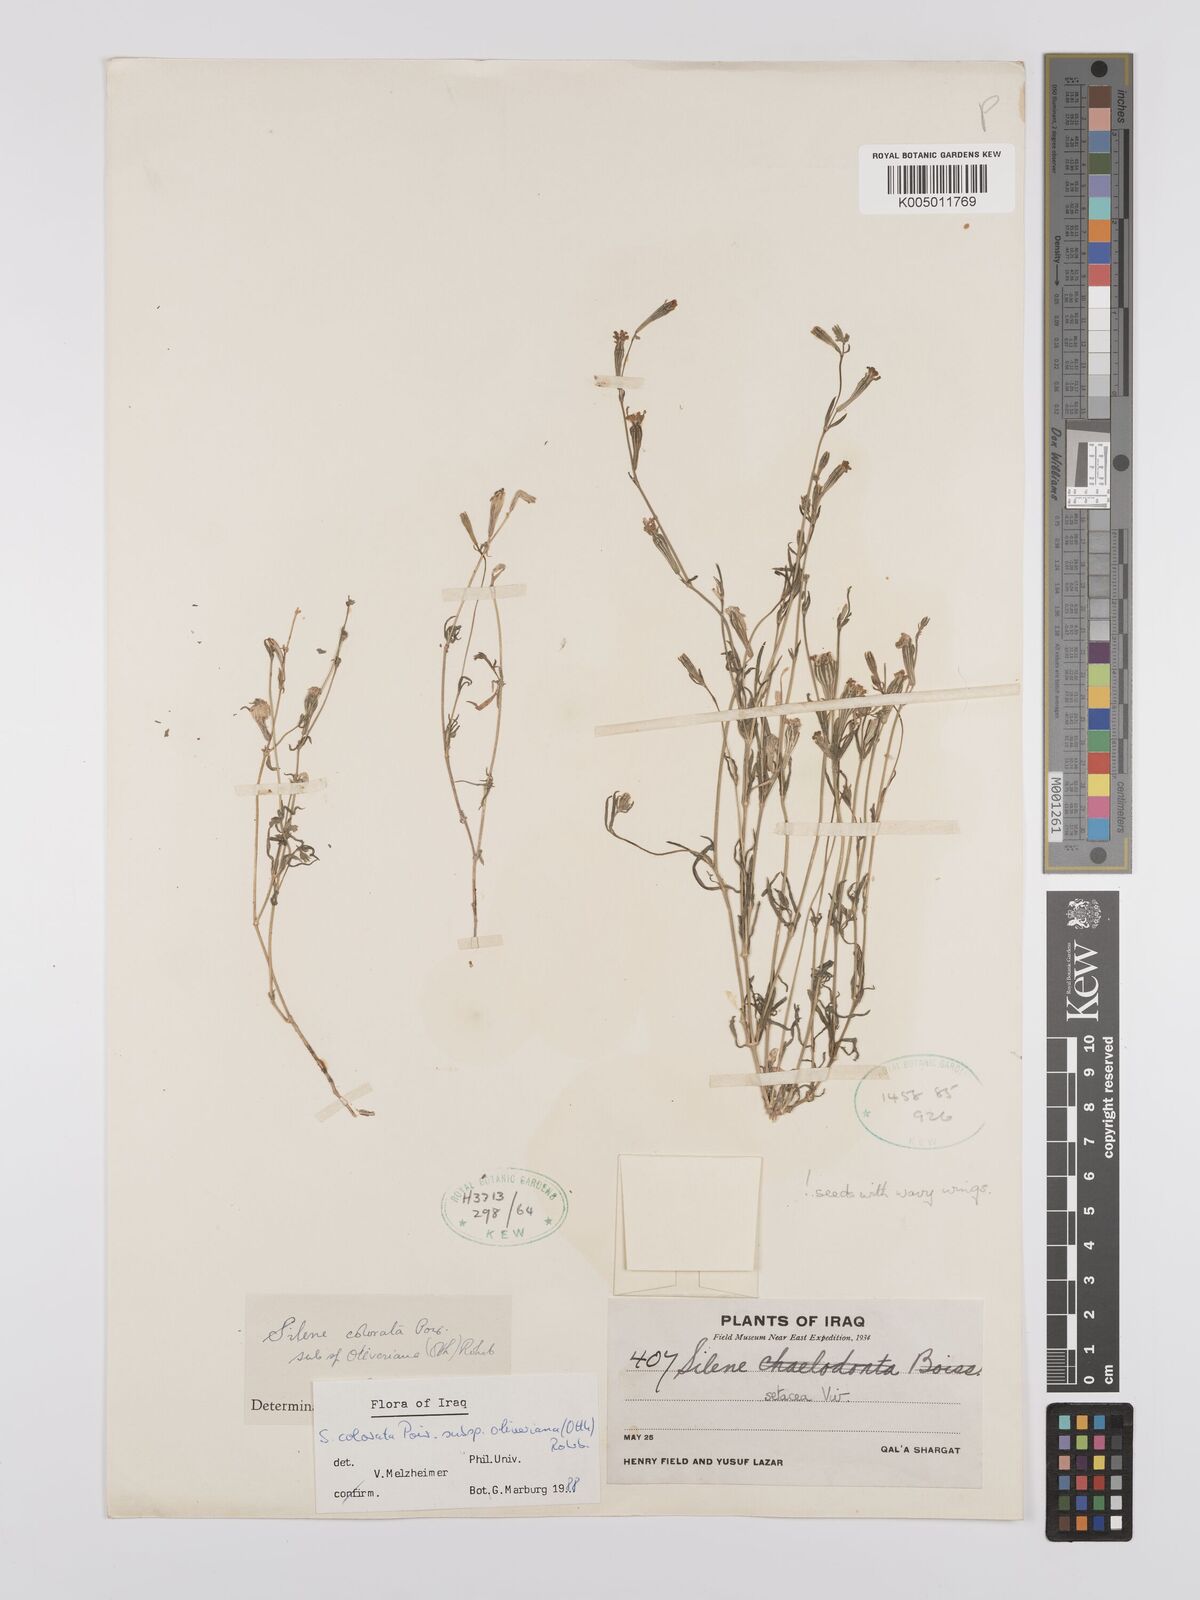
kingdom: Plantae
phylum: Tracheophyta
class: Magnoliopsida
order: Caryophyllales
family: Caryophyllaceae
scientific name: Caryophyllaceae
